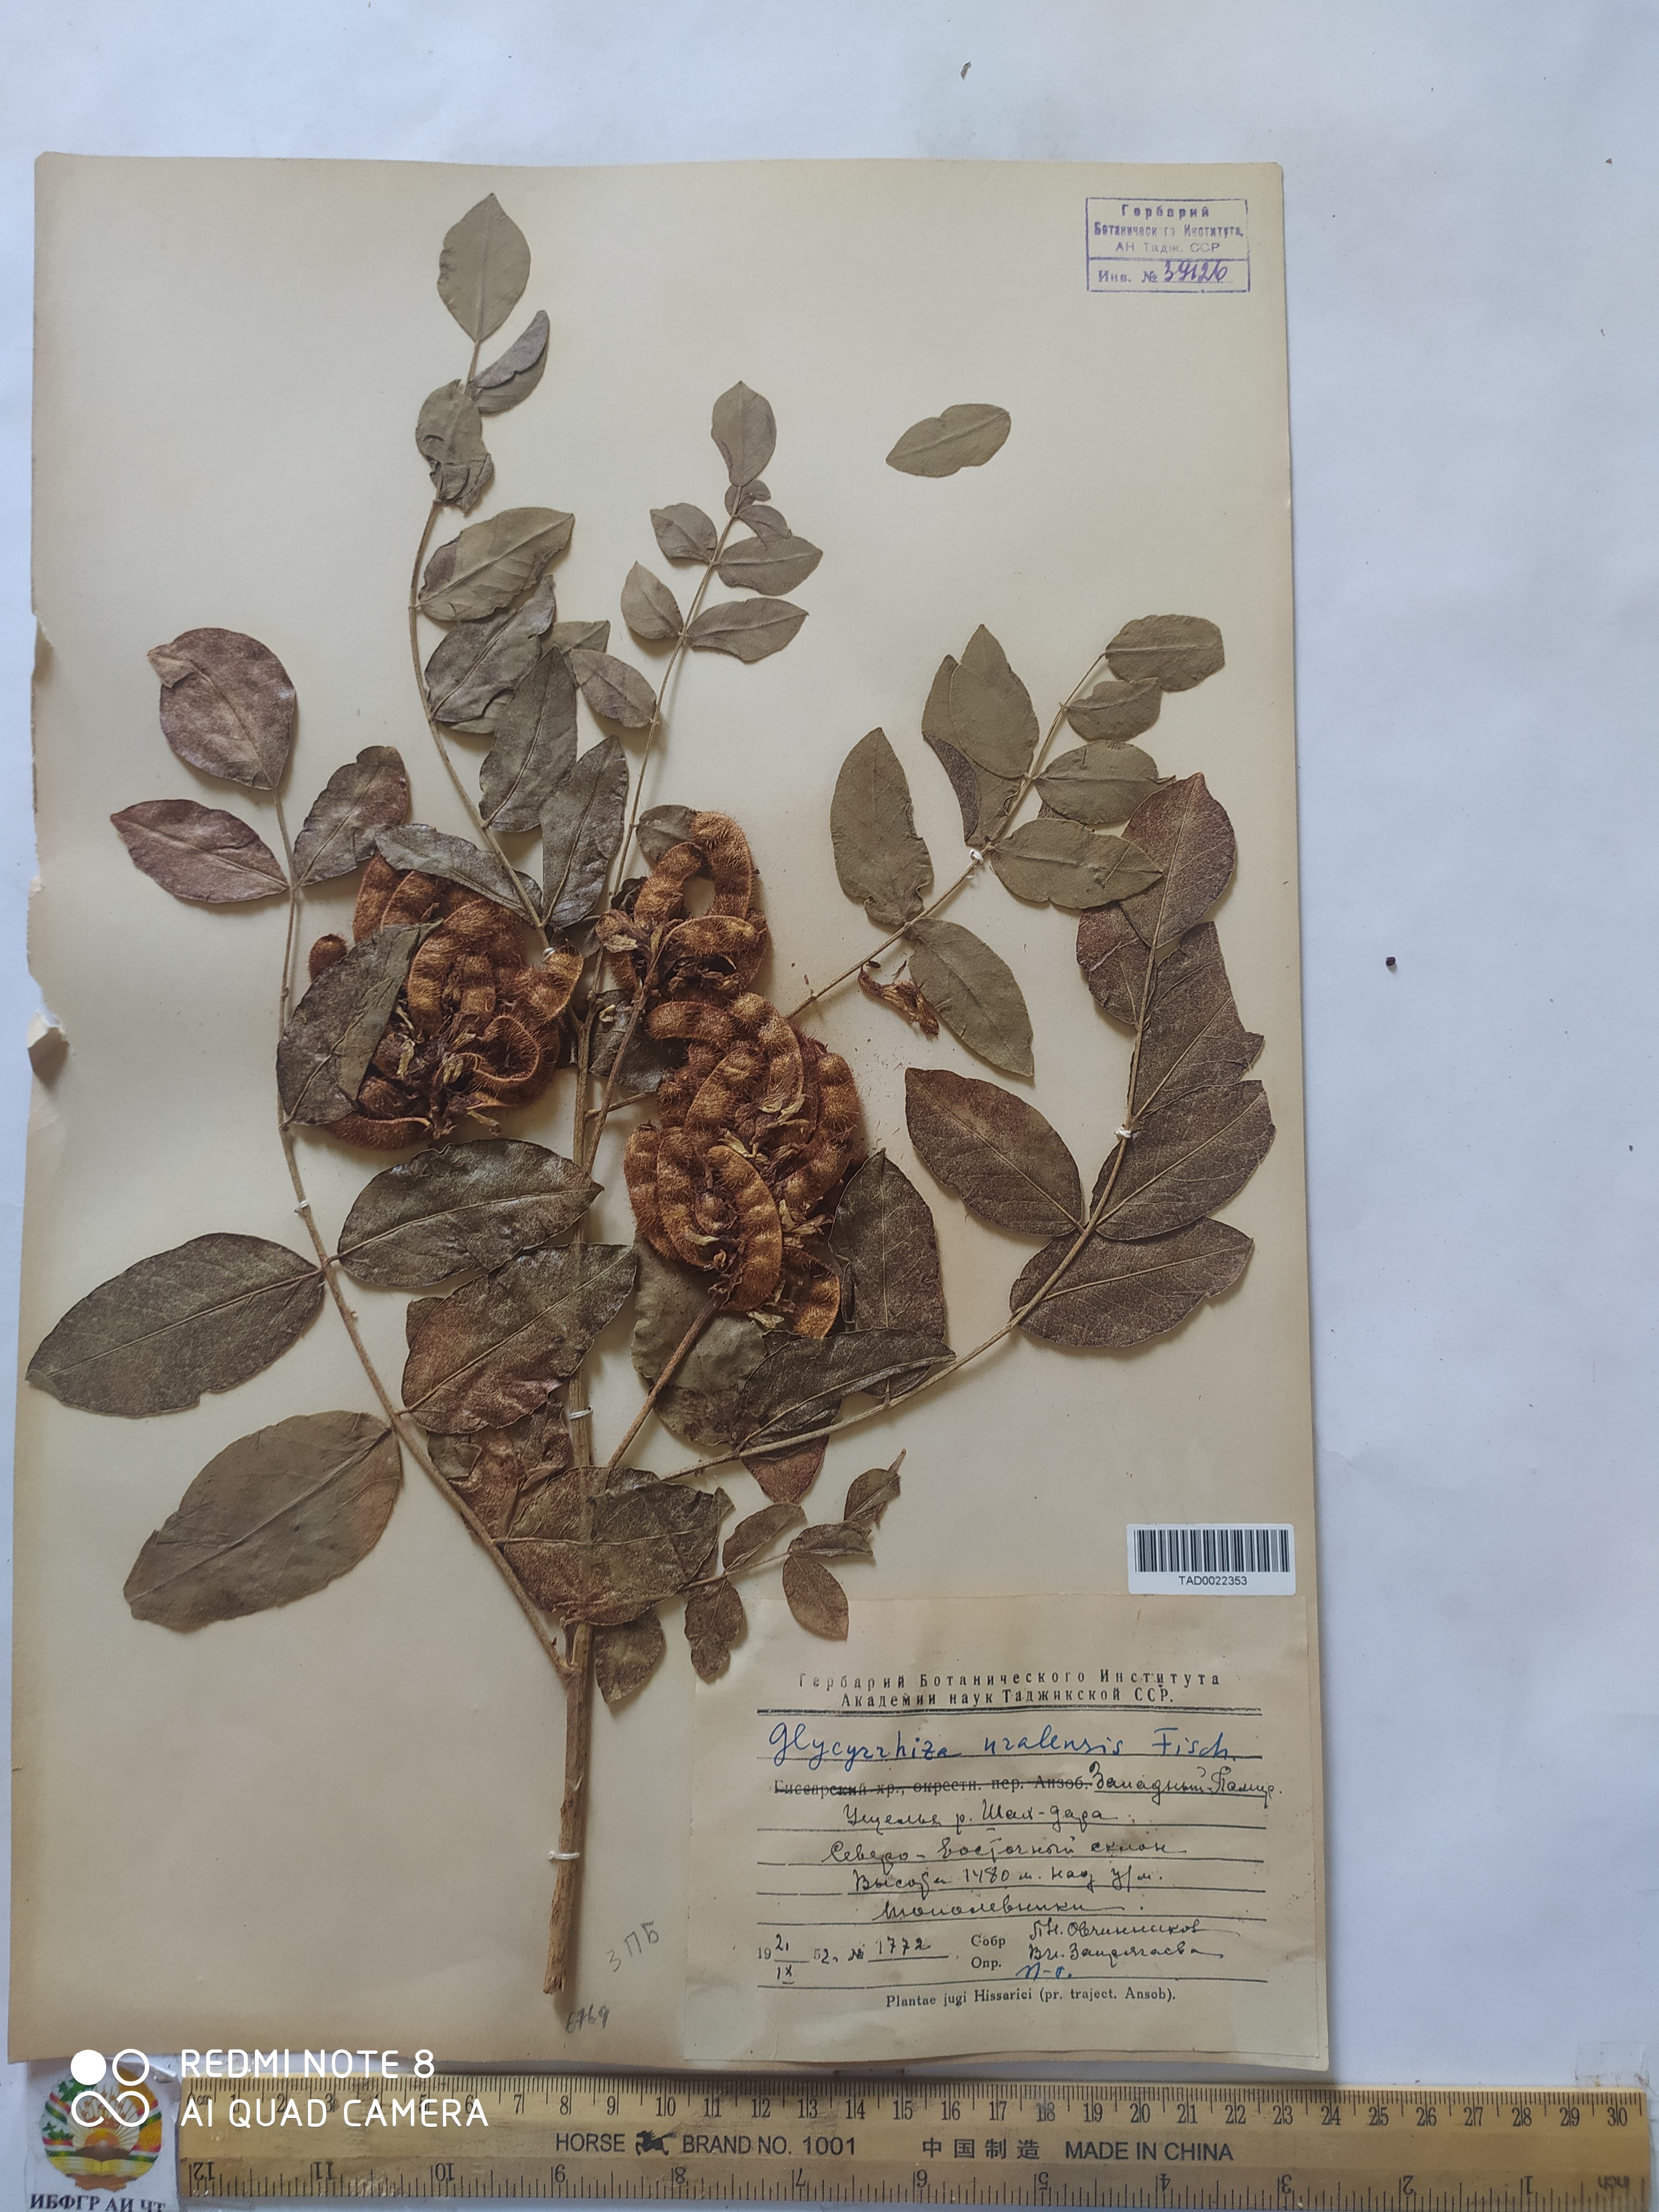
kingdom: Plantae
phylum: Tracheophyta
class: Magnoliopsida
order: Fabales
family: Fabaceae
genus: Glycyrrhiza
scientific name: Glycyrrhiza uralensis
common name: Chinese licorice
